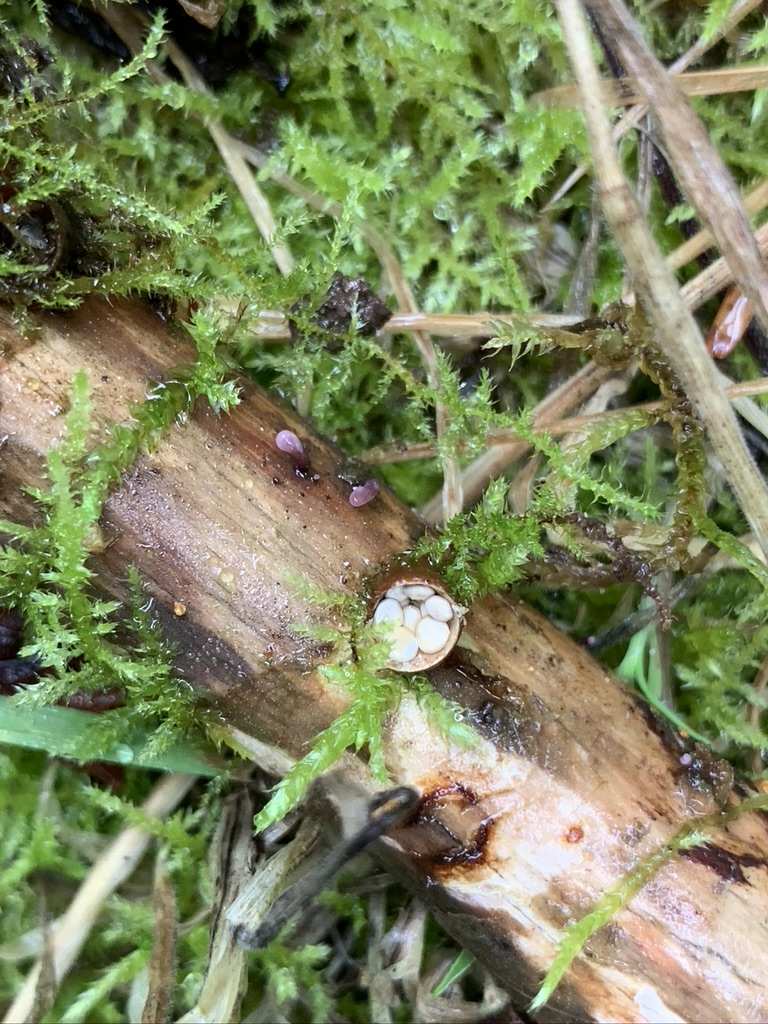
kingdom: Fungi
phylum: Basidiomycota
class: Agaricomycetes
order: Agaricales
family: Nidulariaceae
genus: Crucibulum
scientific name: Crucibulum crucibuliforme
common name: krukkesvamp
